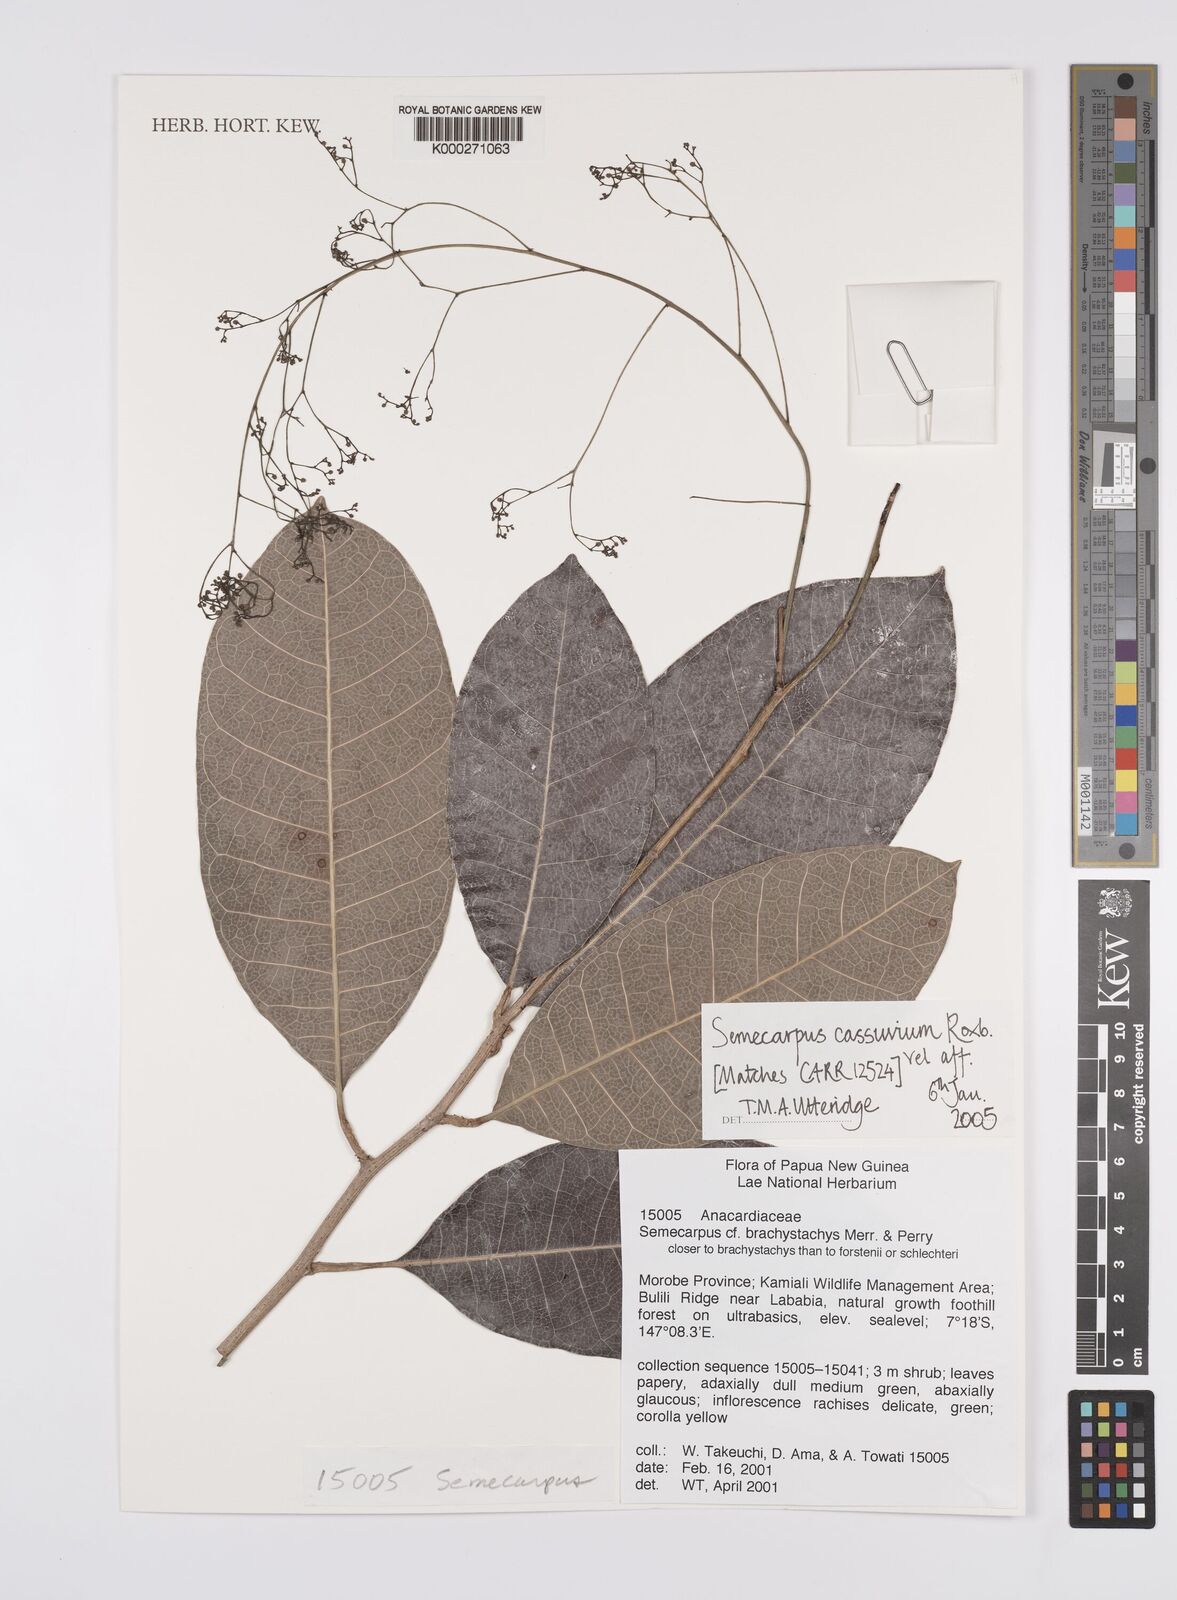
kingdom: Plantae
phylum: Tracheophyta
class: Magnoliopsida
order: Sapindales
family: Anacardiaceae
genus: Semecarpus
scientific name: Semecarpus
